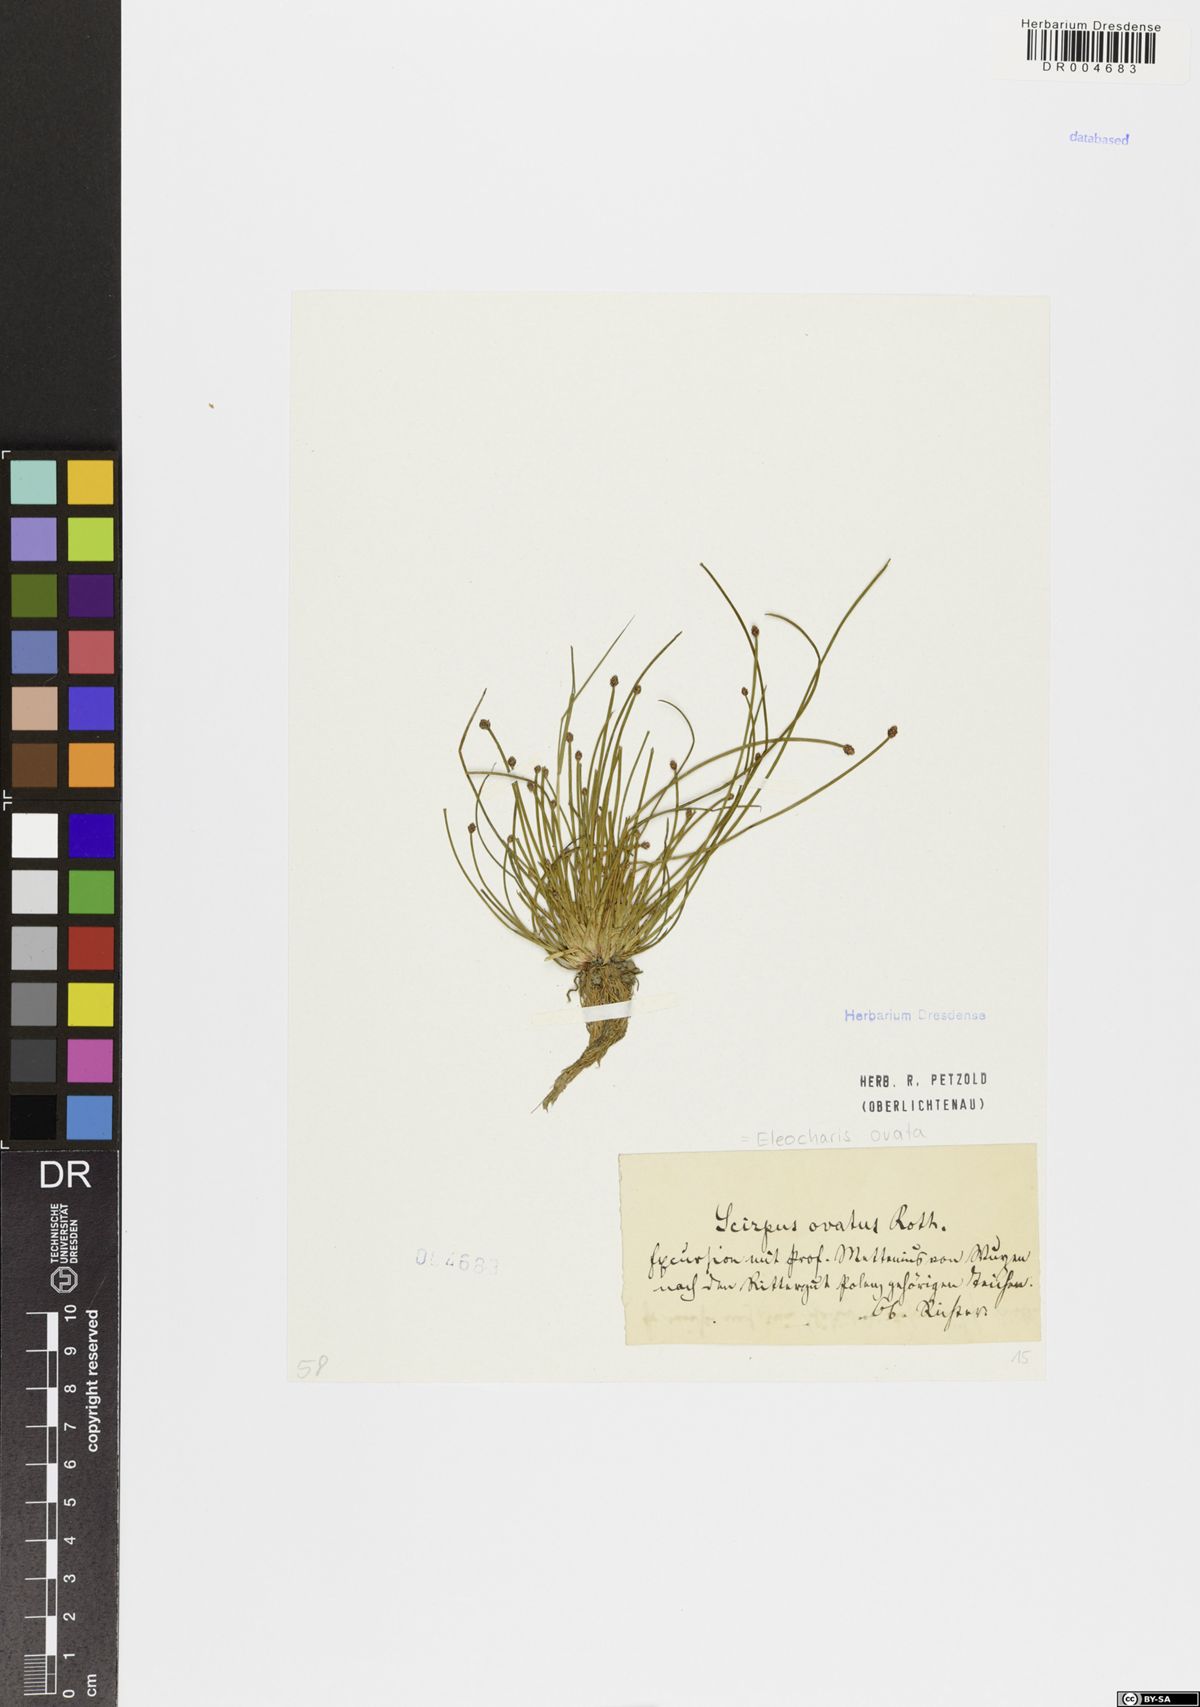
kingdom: Plantae
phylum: Tracheophyta
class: Liliopsida
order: Poales
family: Cyperaceae
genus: Eleocharis
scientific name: Eleocharis ovata
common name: Oval spike-rush
